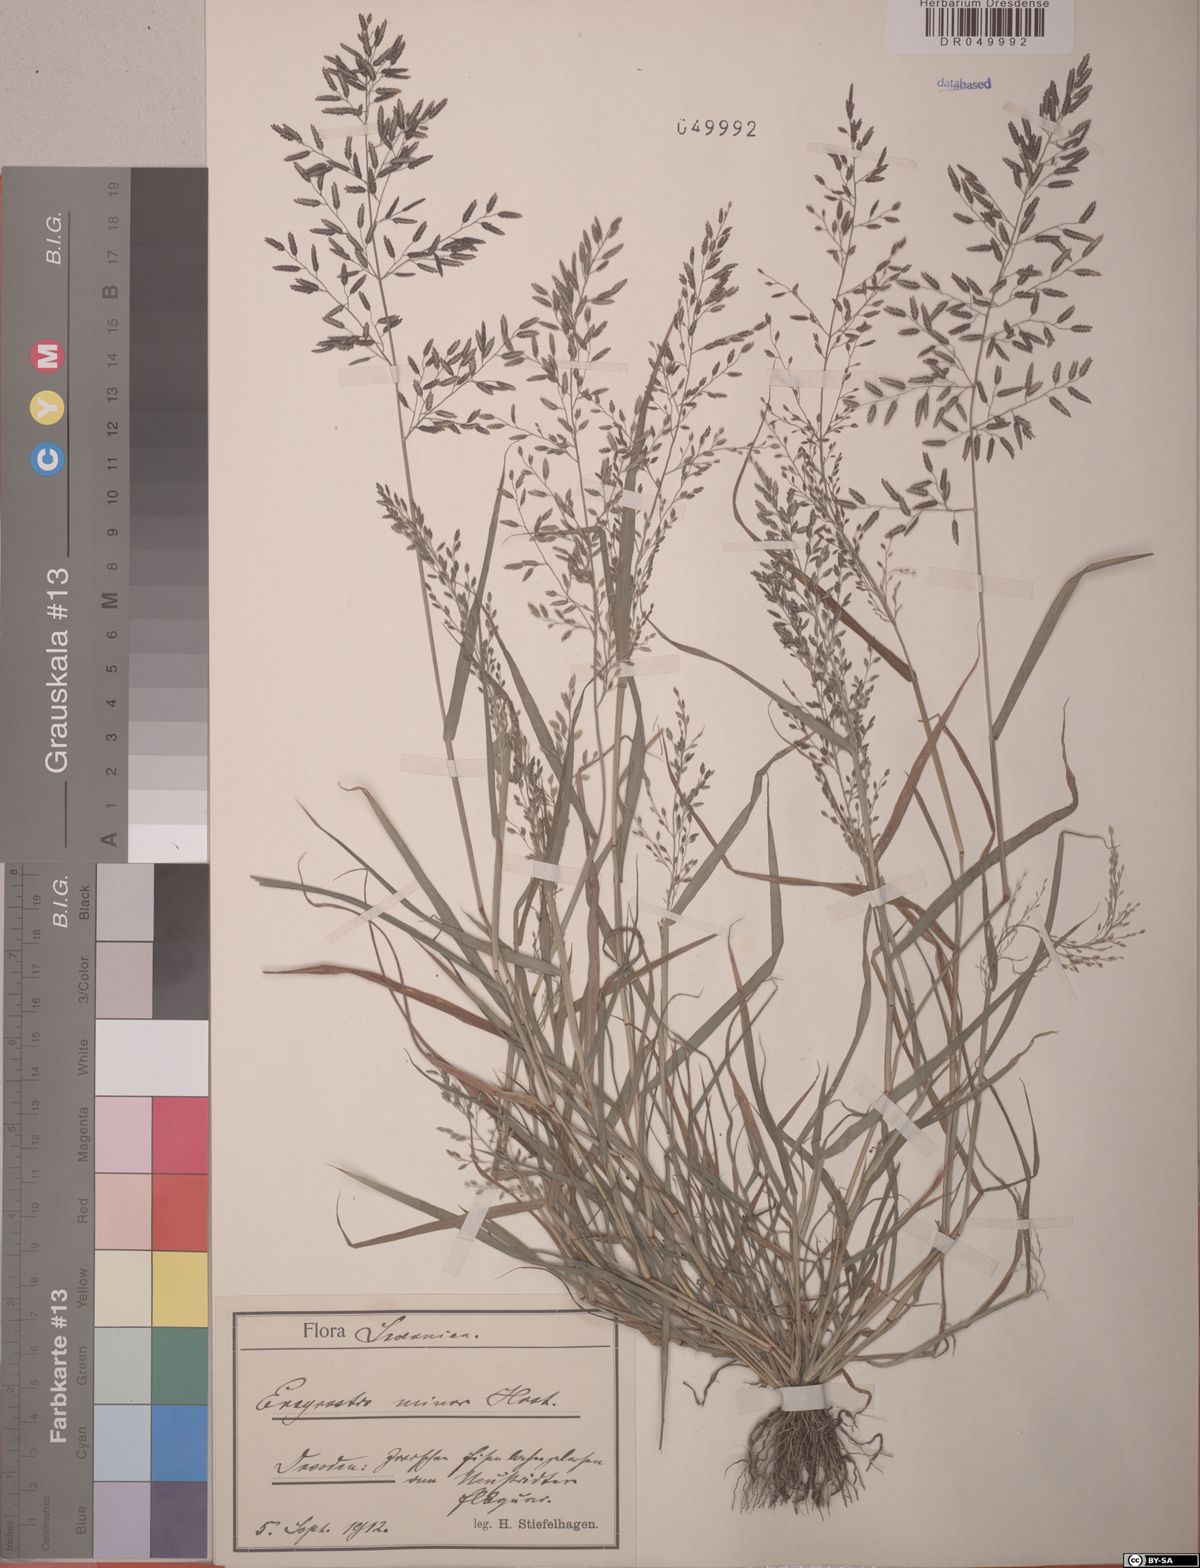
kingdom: Plantae
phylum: Tracheophyta
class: Liliopsida
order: Poales
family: Poaceae
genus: Eragrostis
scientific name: Eragrostis minor
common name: Small love-grass
